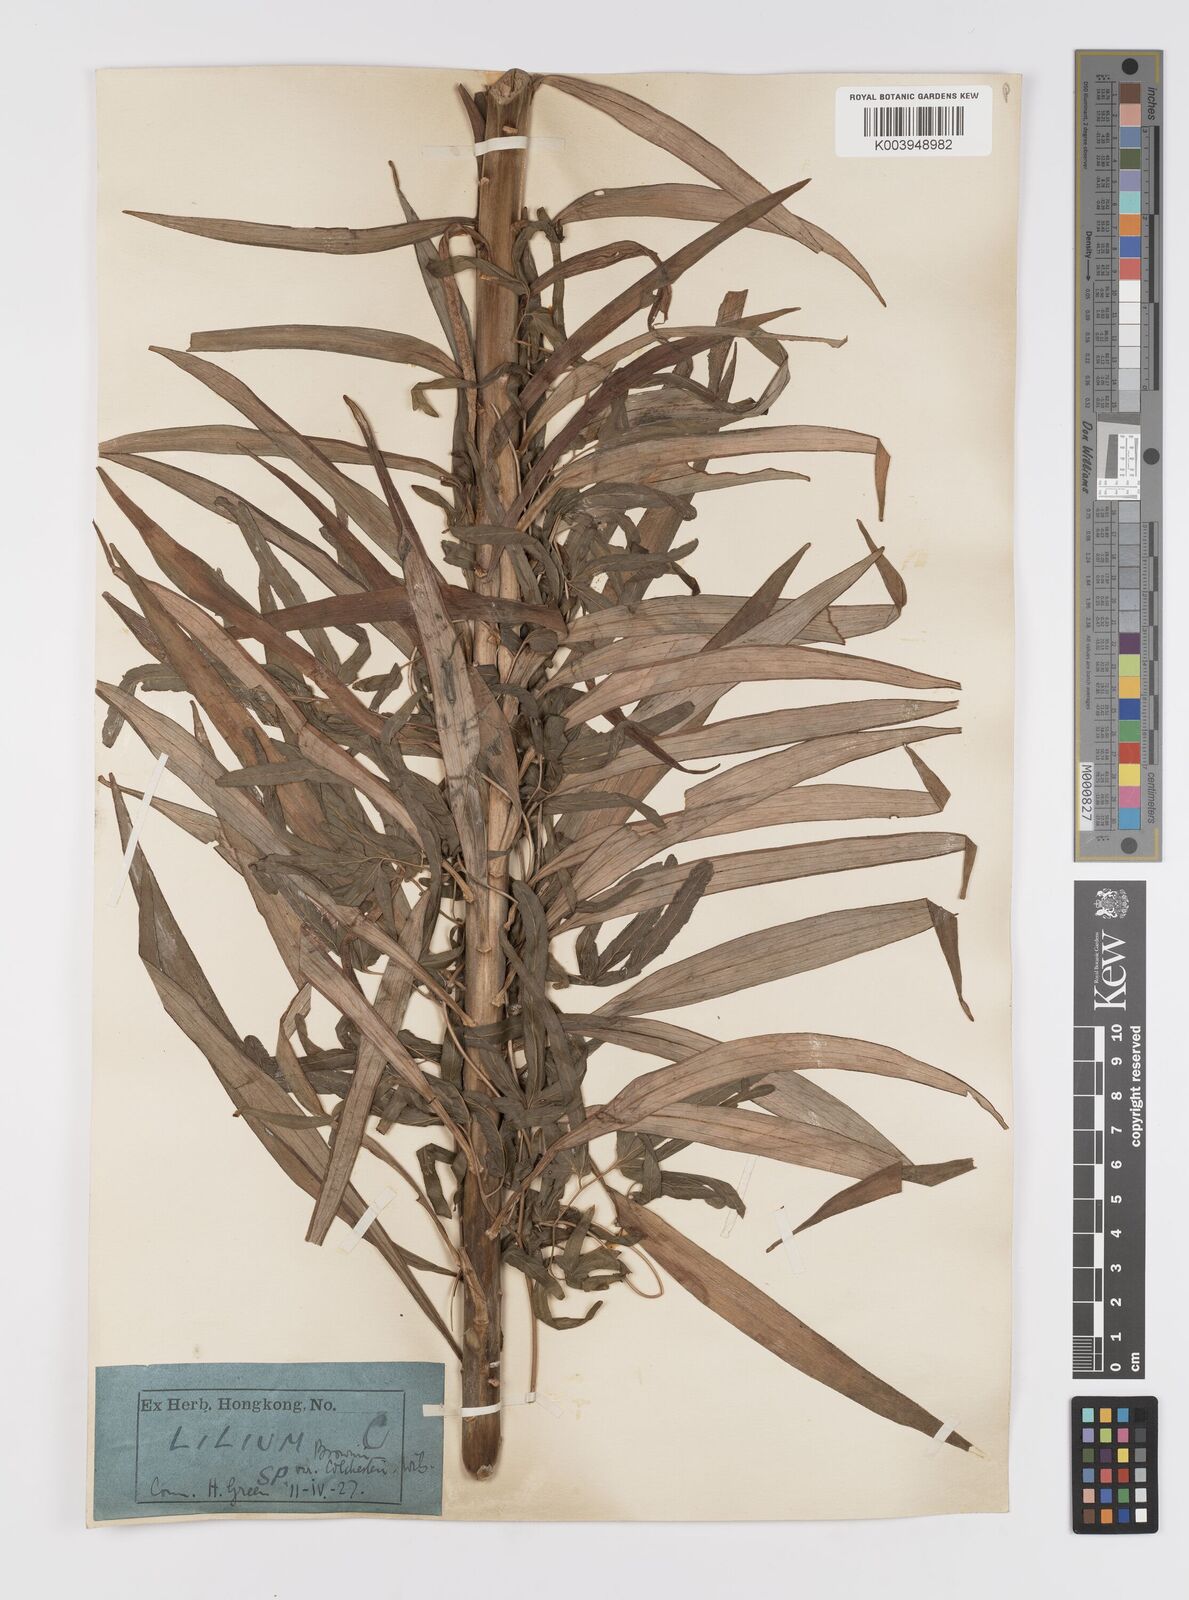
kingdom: Plantae
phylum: Tracheophyta
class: Liliopsida
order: Liliales
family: Liliaceae
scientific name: Liliaceae
